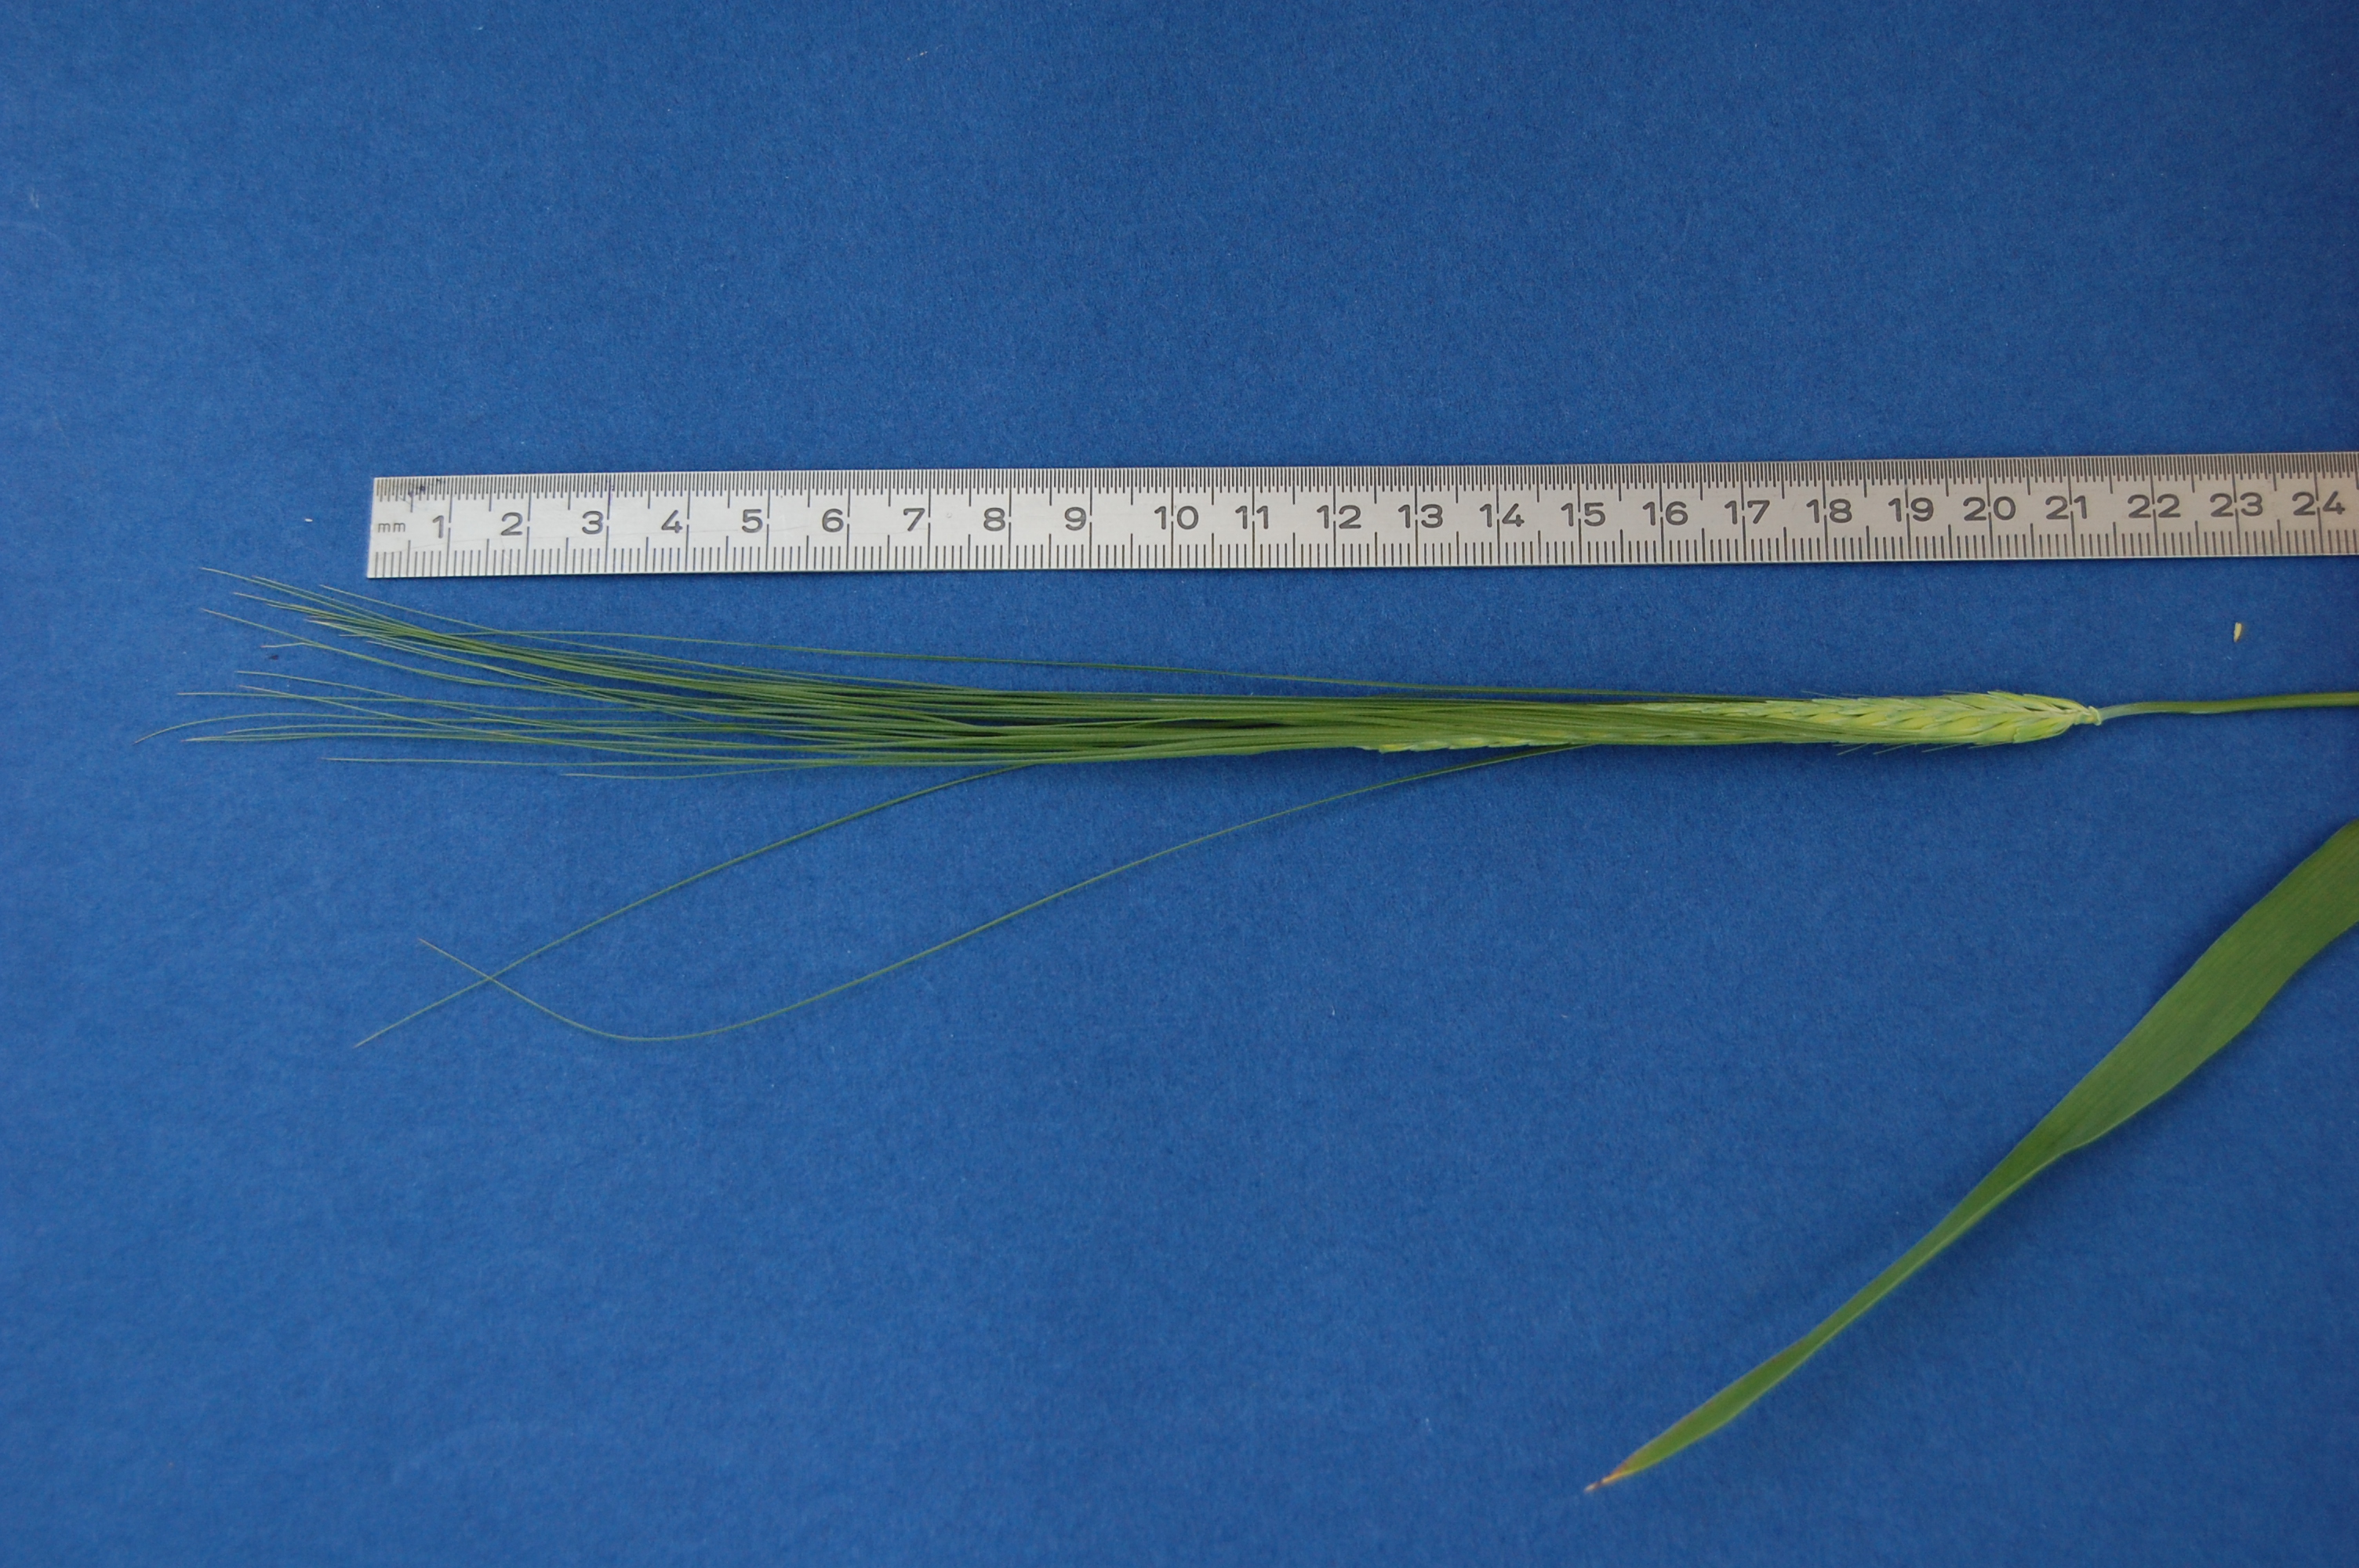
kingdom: Plantae
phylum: Tracheophyta
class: Liliopsida
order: Poales
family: Poaceae
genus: Hordeum
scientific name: Hordeum vulgare
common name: Common barley
